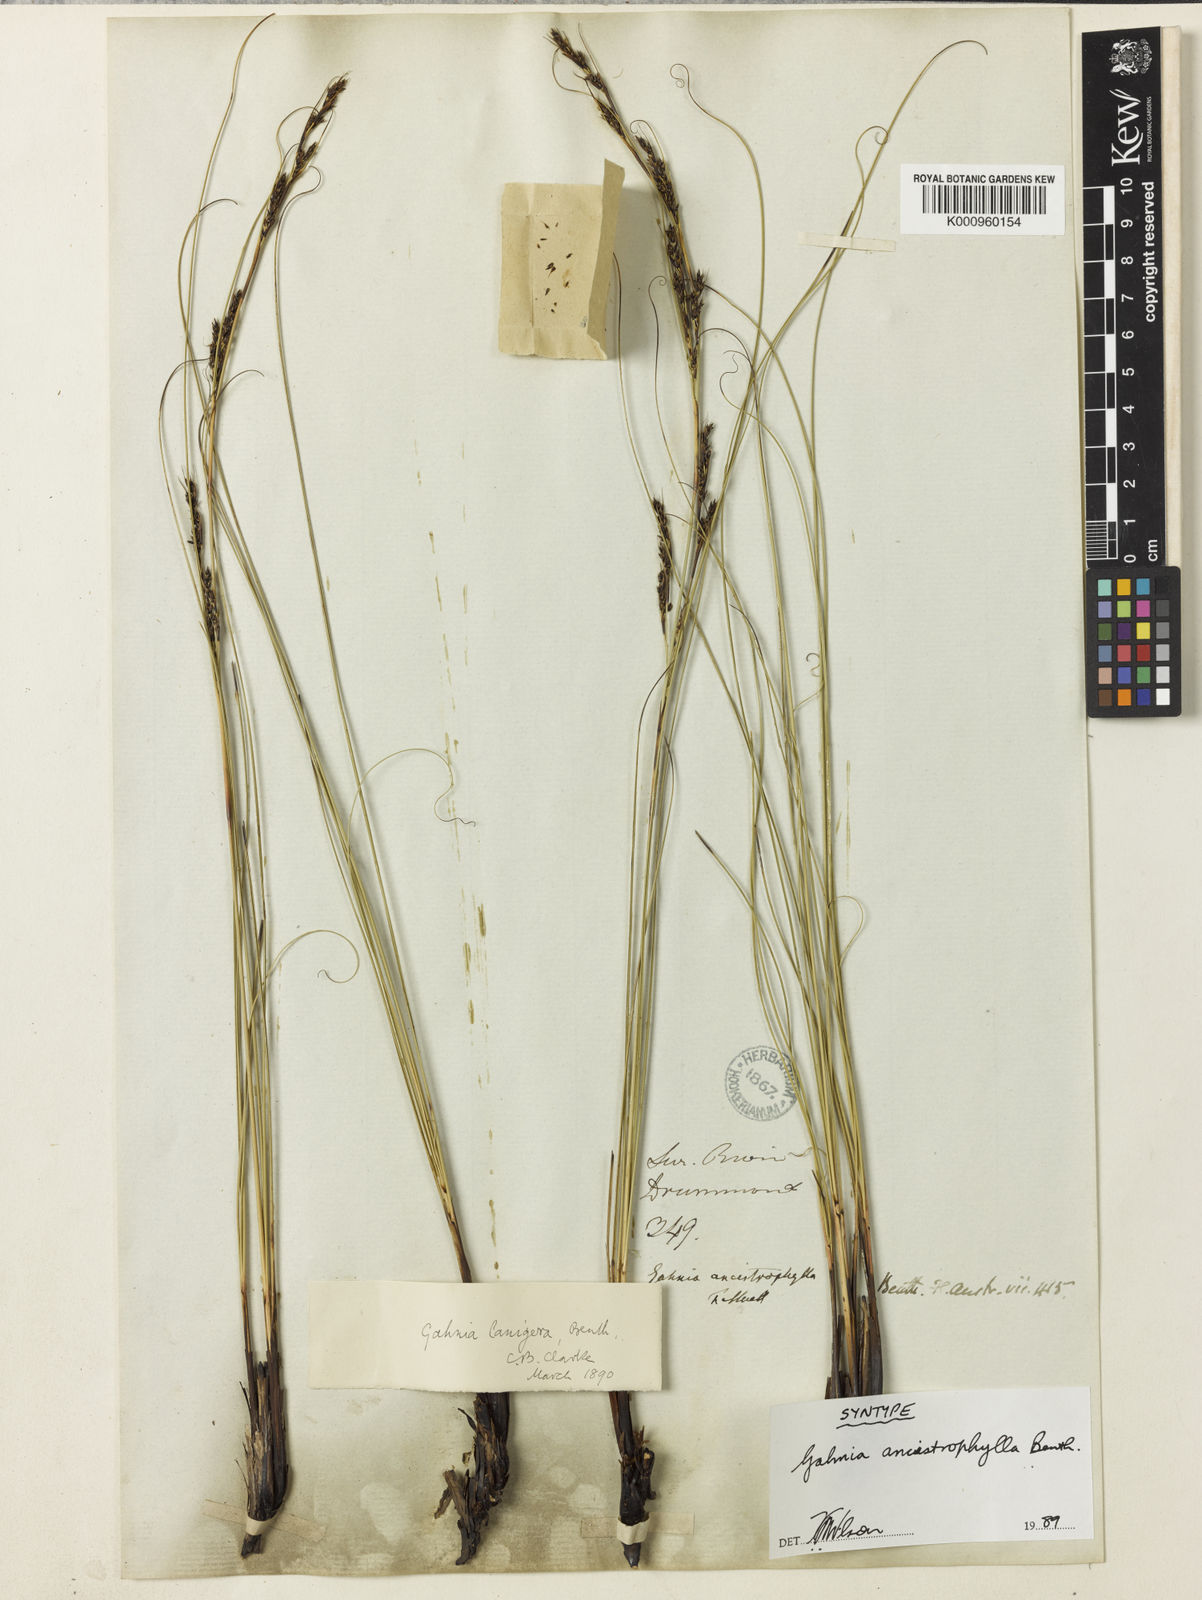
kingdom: Plantae
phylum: Tracheophyta
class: Liliopsida
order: Poales
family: Cyperaceae
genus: Gahnia
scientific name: Gahnia ancistrophylla
